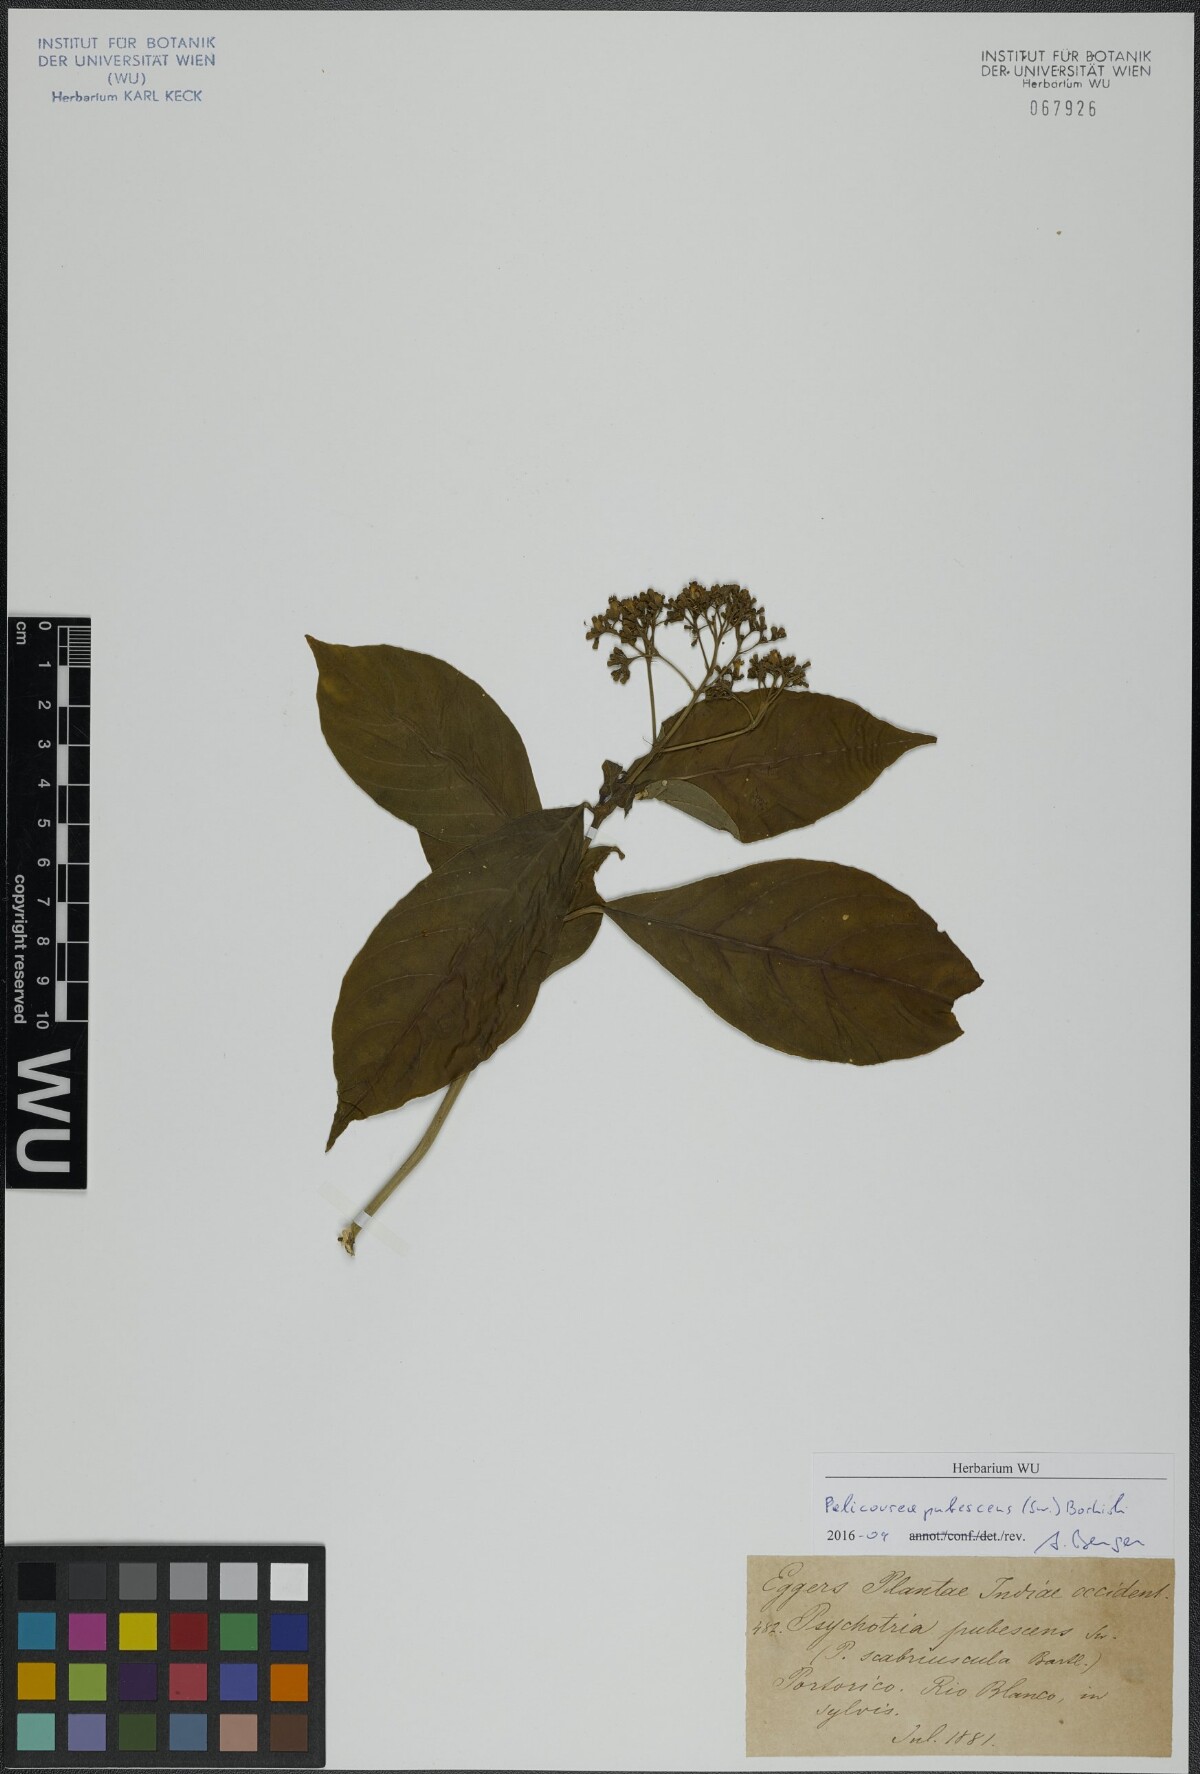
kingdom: Plantae
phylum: Tracheophyta
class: Magnoliopsida
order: Gentianales
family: Rubiaceae
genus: Palicourea
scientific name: Palicourea pubescens
